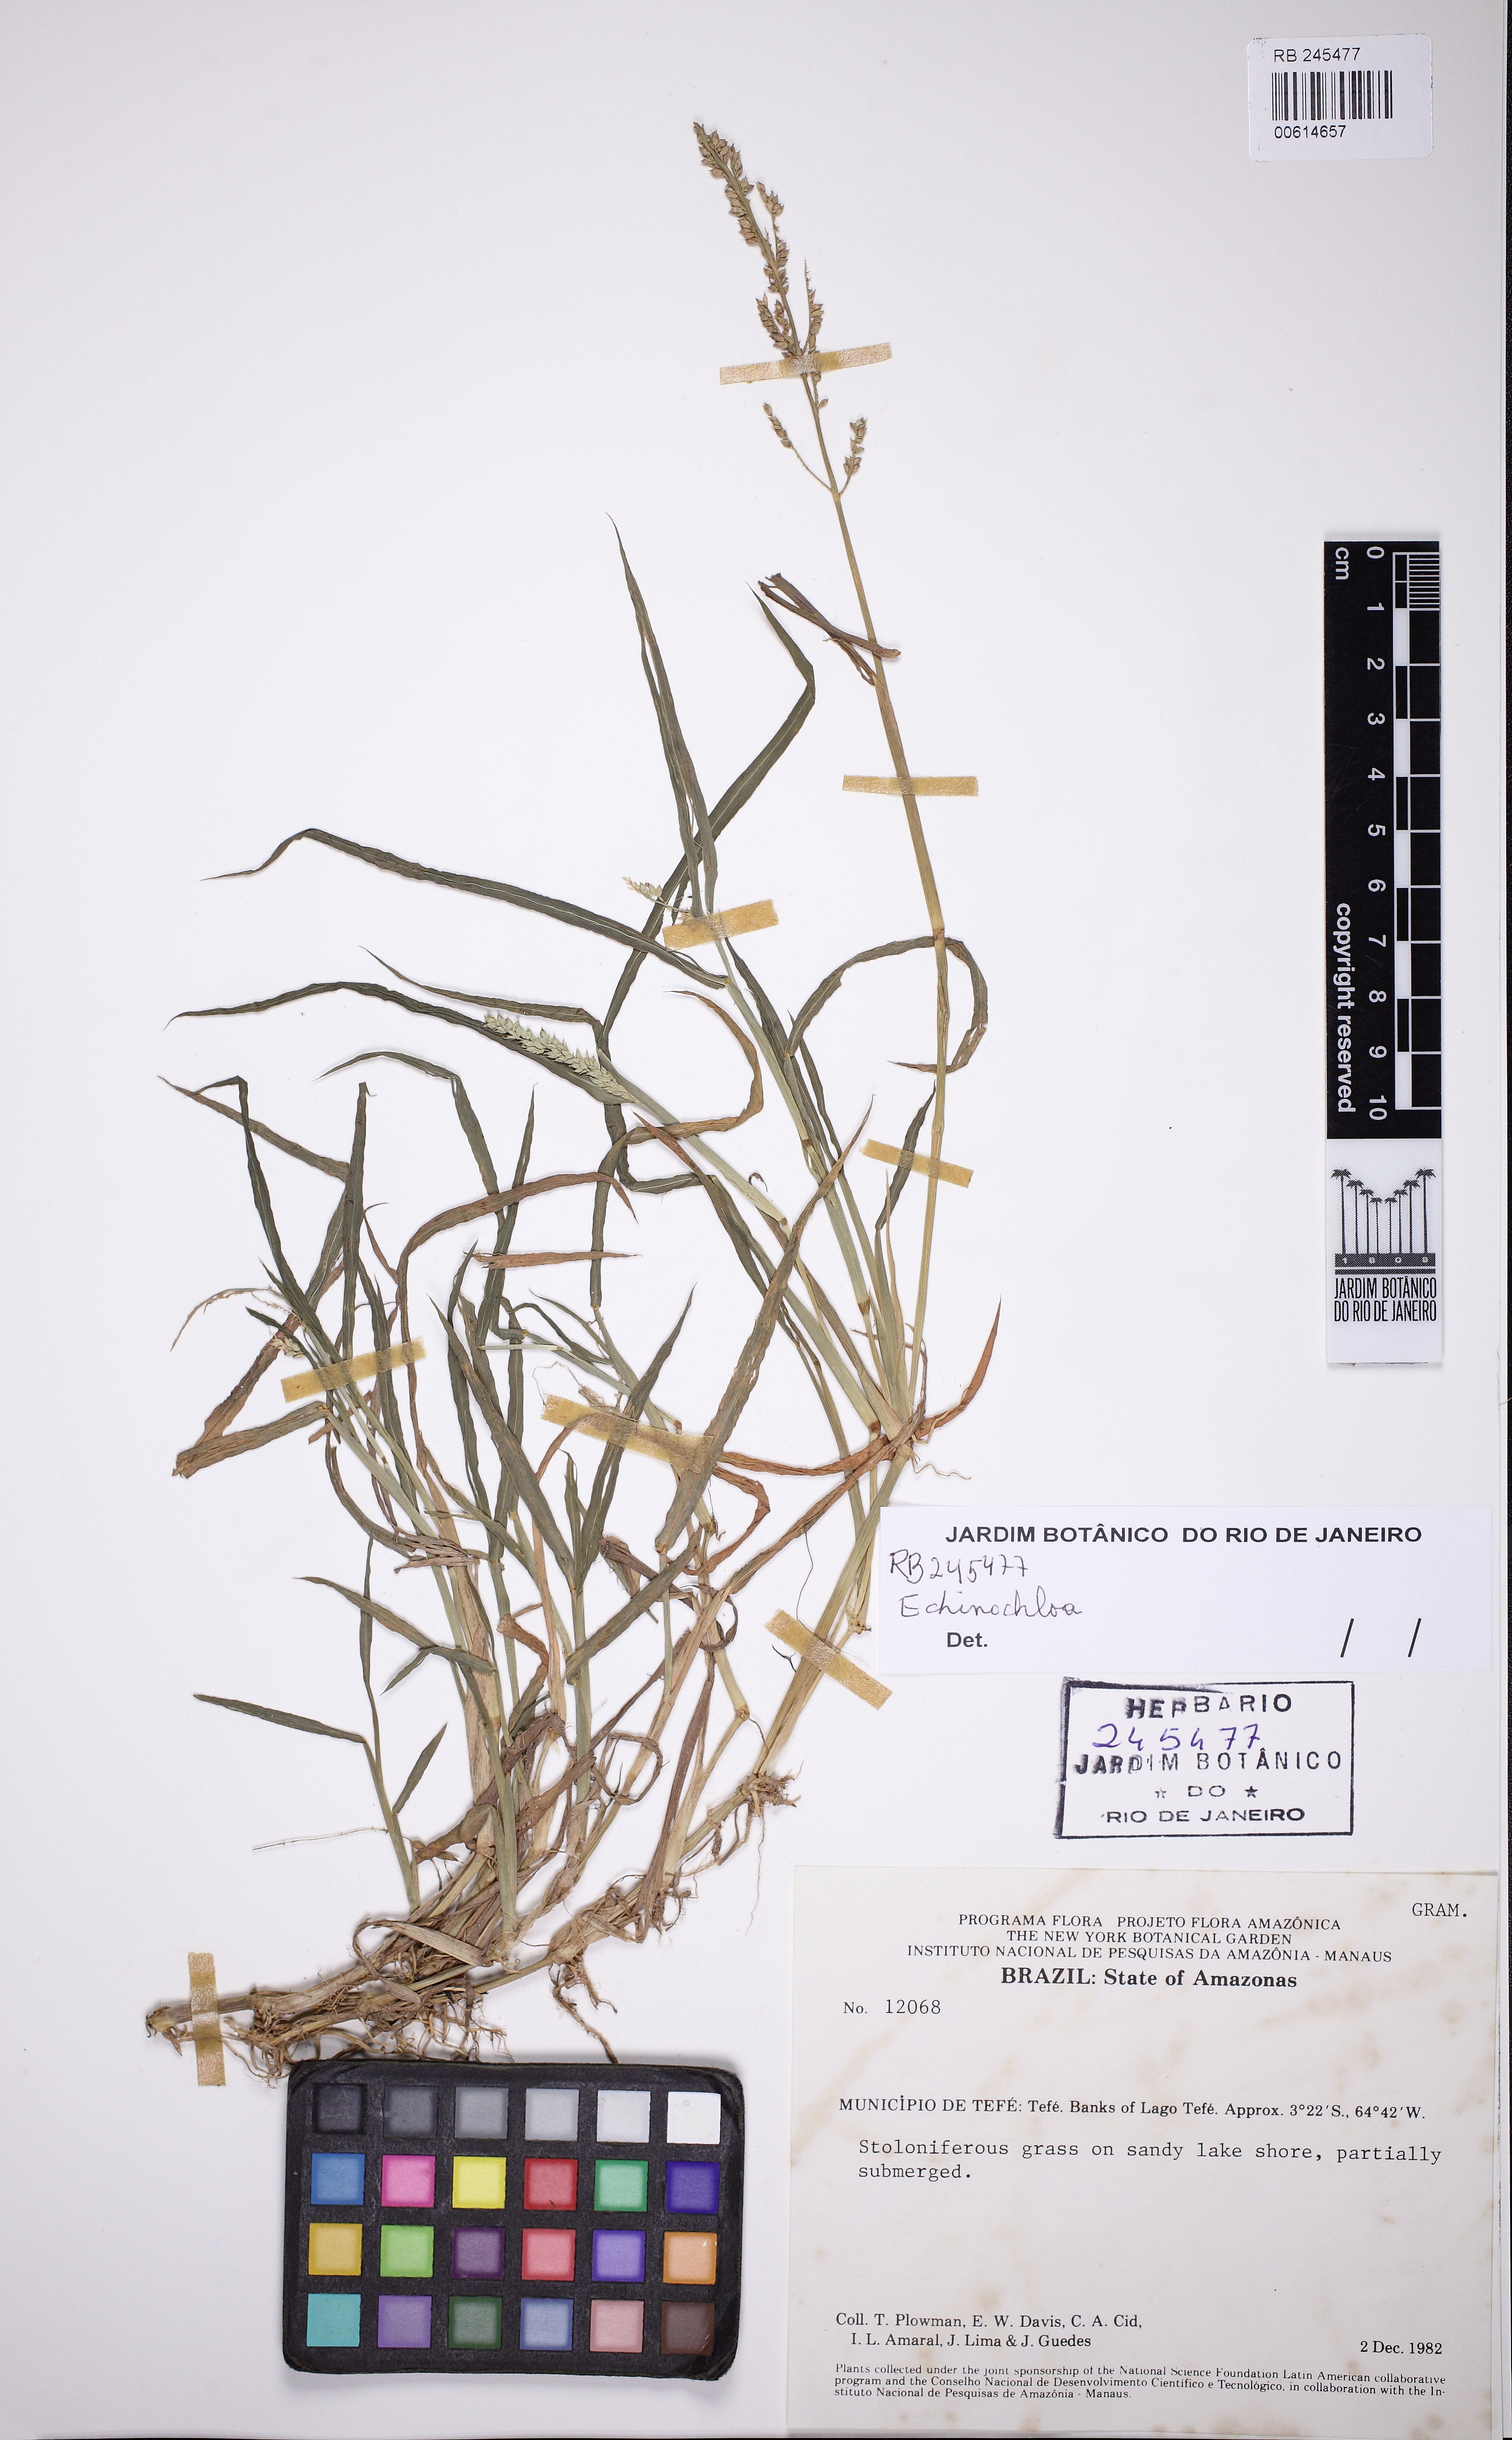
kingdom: Plantae
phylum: Tracheophyta
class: Liliopsida
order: Poales
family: Poaceae
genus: Echinochloa
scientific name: Echinochloa
